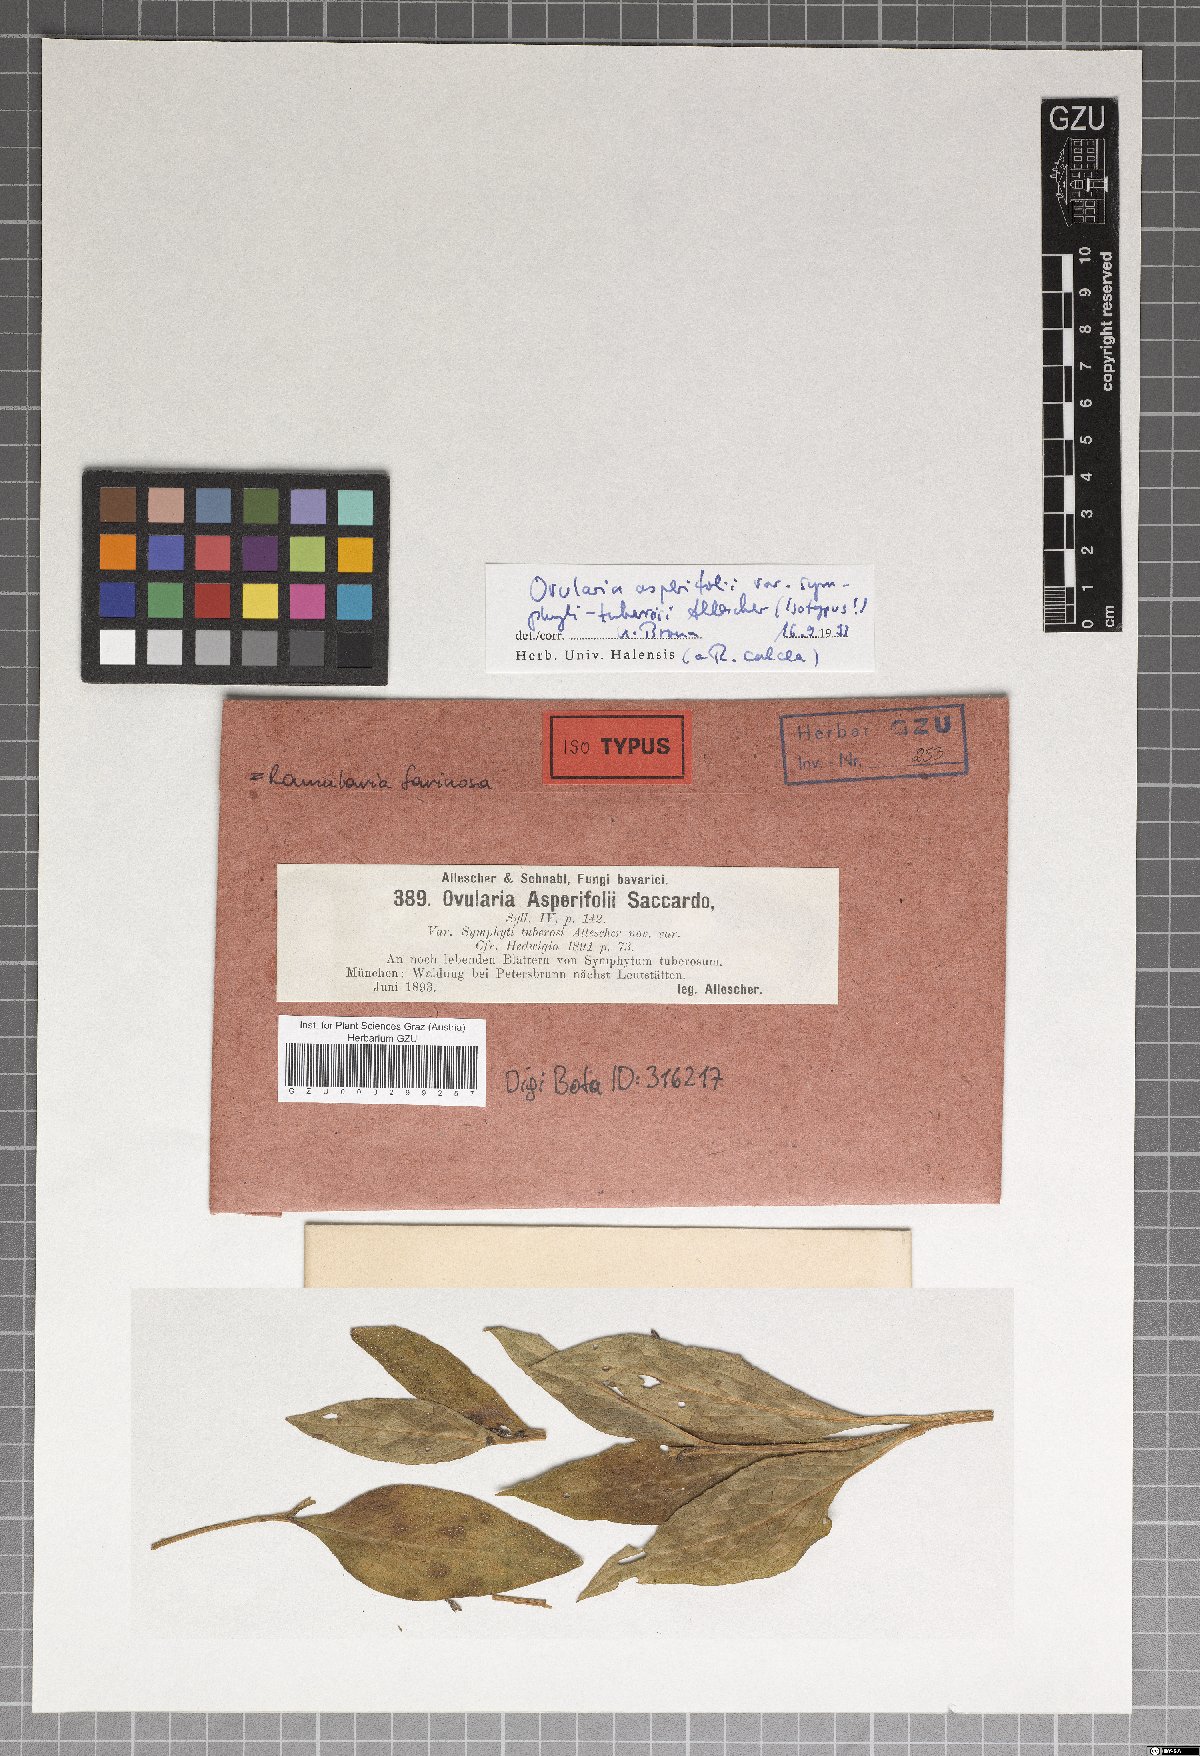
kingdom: Fungi
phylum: Ascomycota
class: Dothideomycetes
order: Mycosphaerellales
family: Mycosphaerellaceae
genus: Ramularia
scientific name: Ramularia calcea
